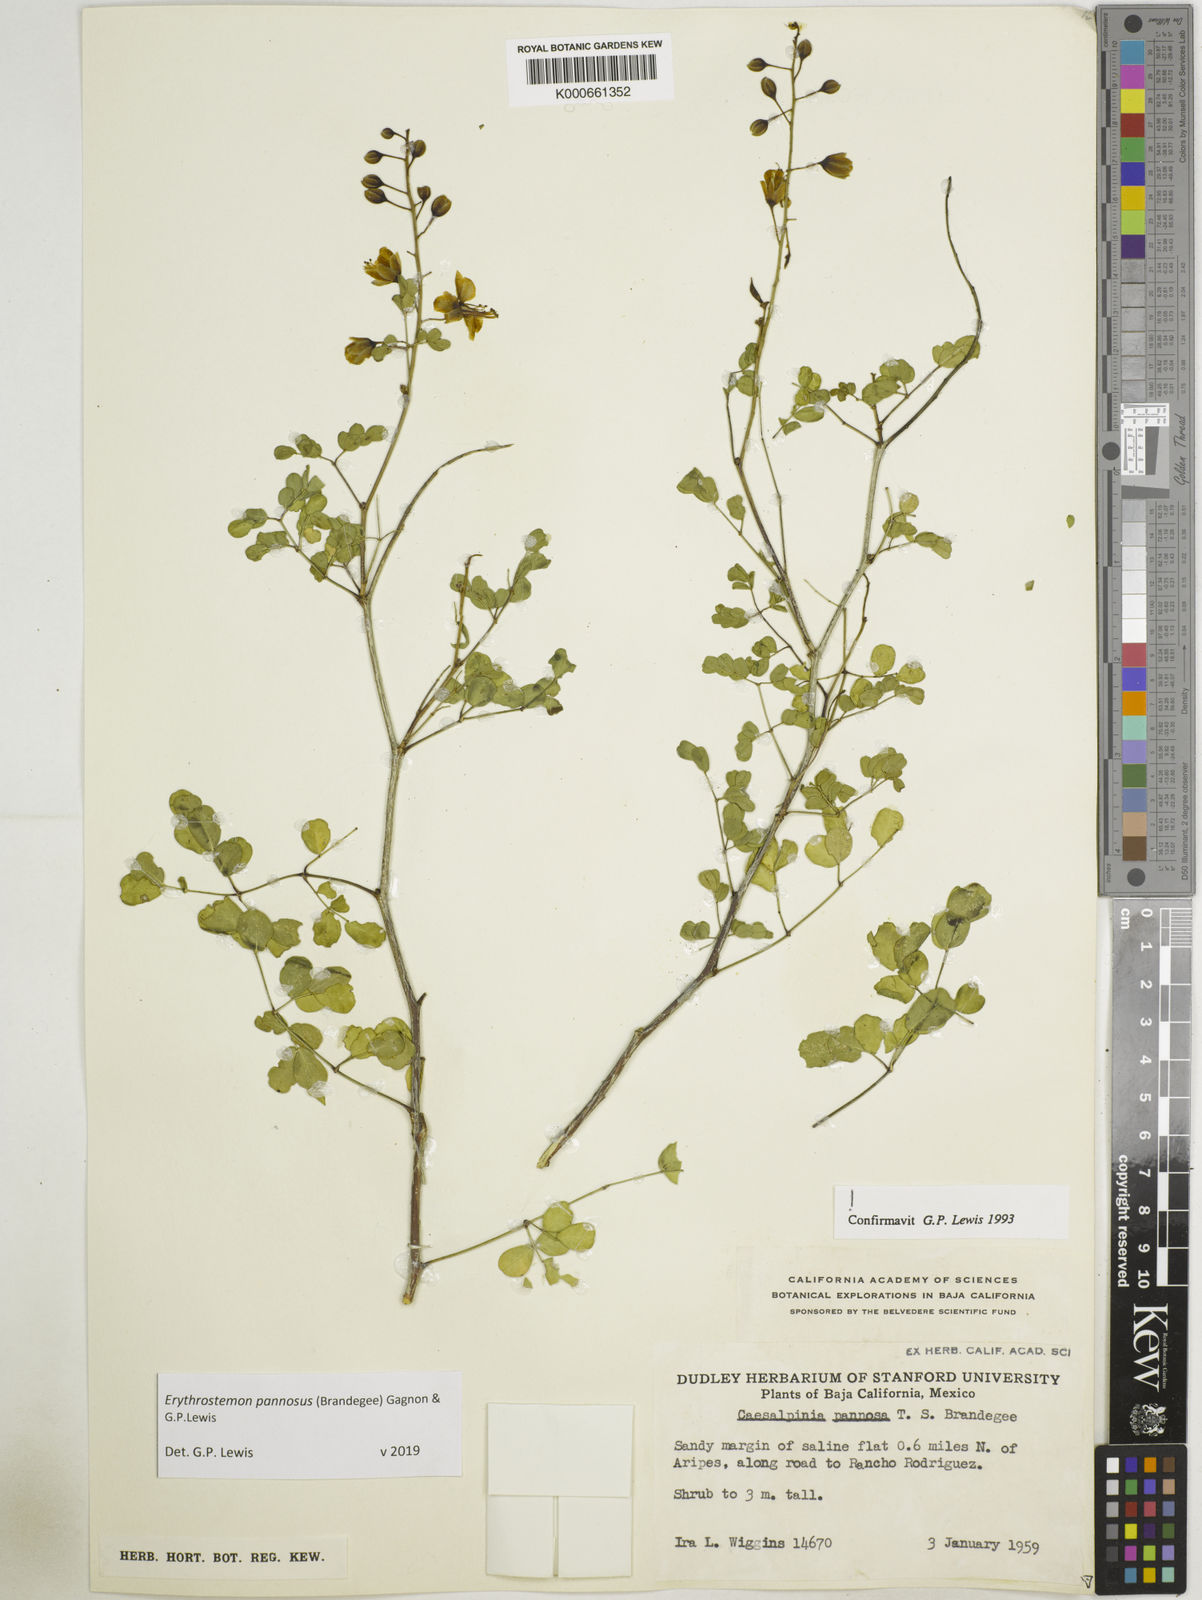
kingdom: Plantae
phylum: Tracheophyta
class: Magnoliopsida
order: Fabales
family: Fabaceae
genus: Erythrostemon
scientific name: Erythrostemon pannosus
